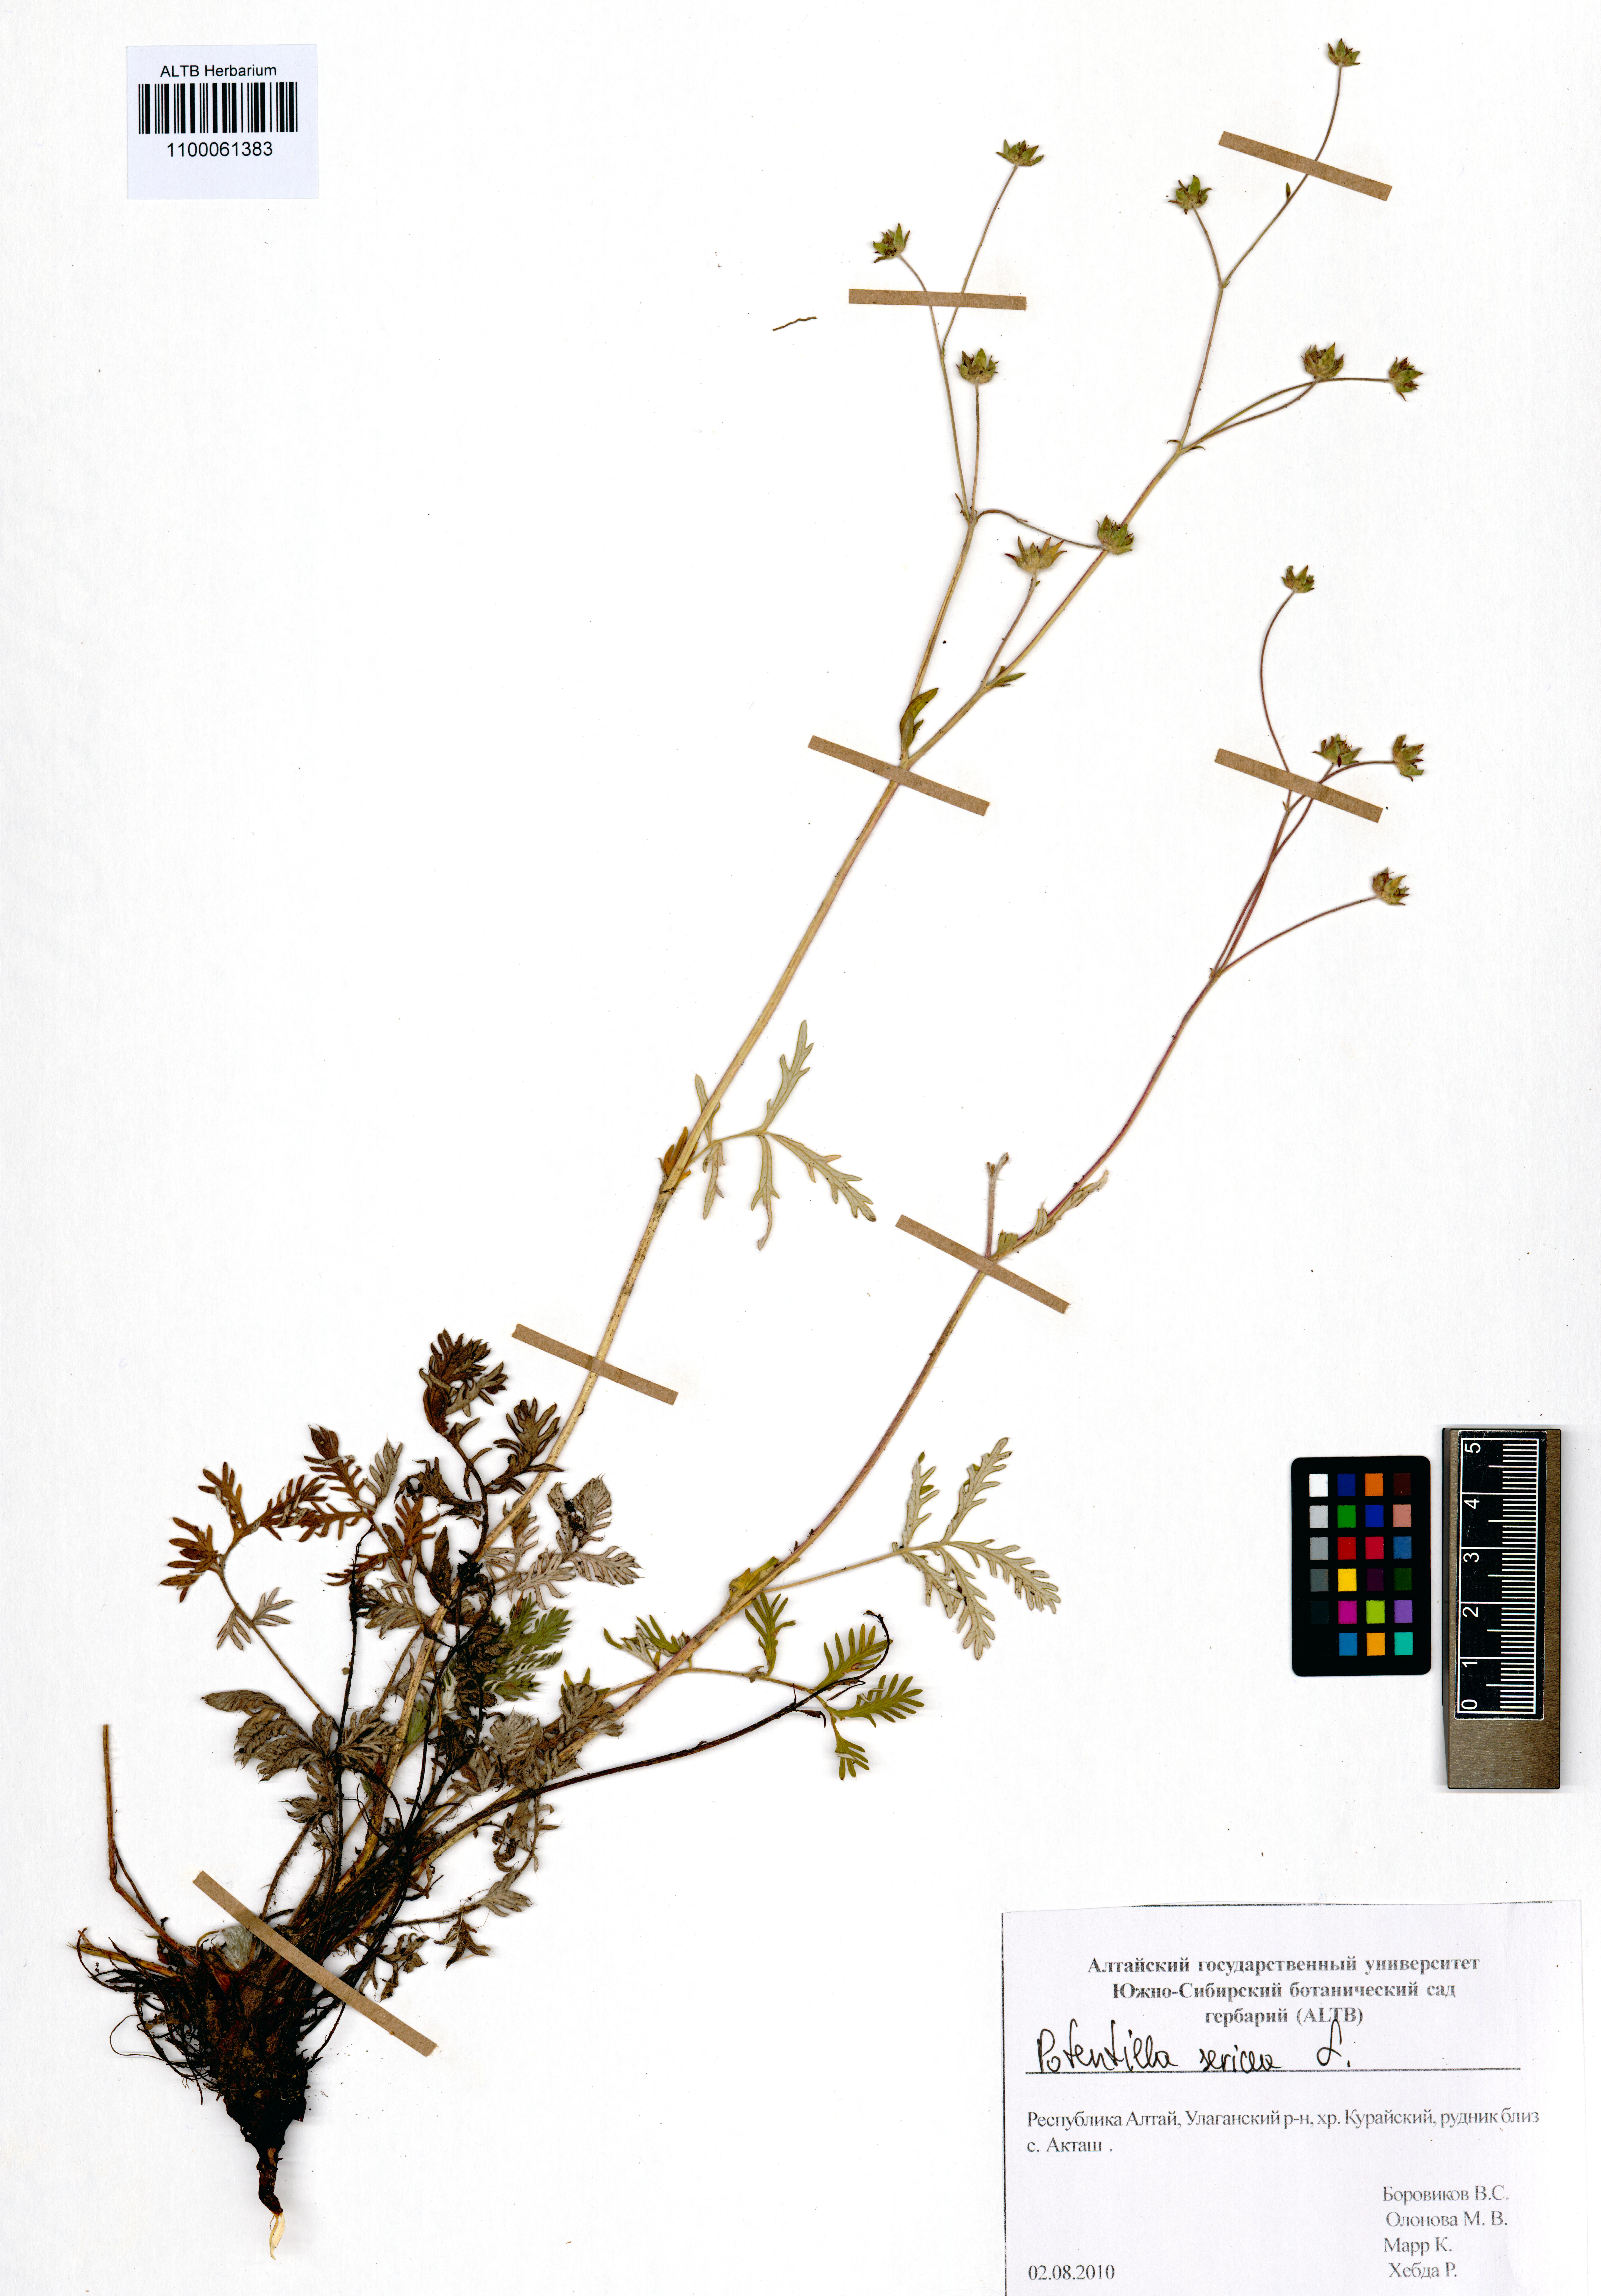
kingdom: Plantae
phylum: Tracheophyta
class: Magnoliopsida
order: Rosales
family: Rosaceae
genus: Potentilla
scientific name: Potentilla sericea
